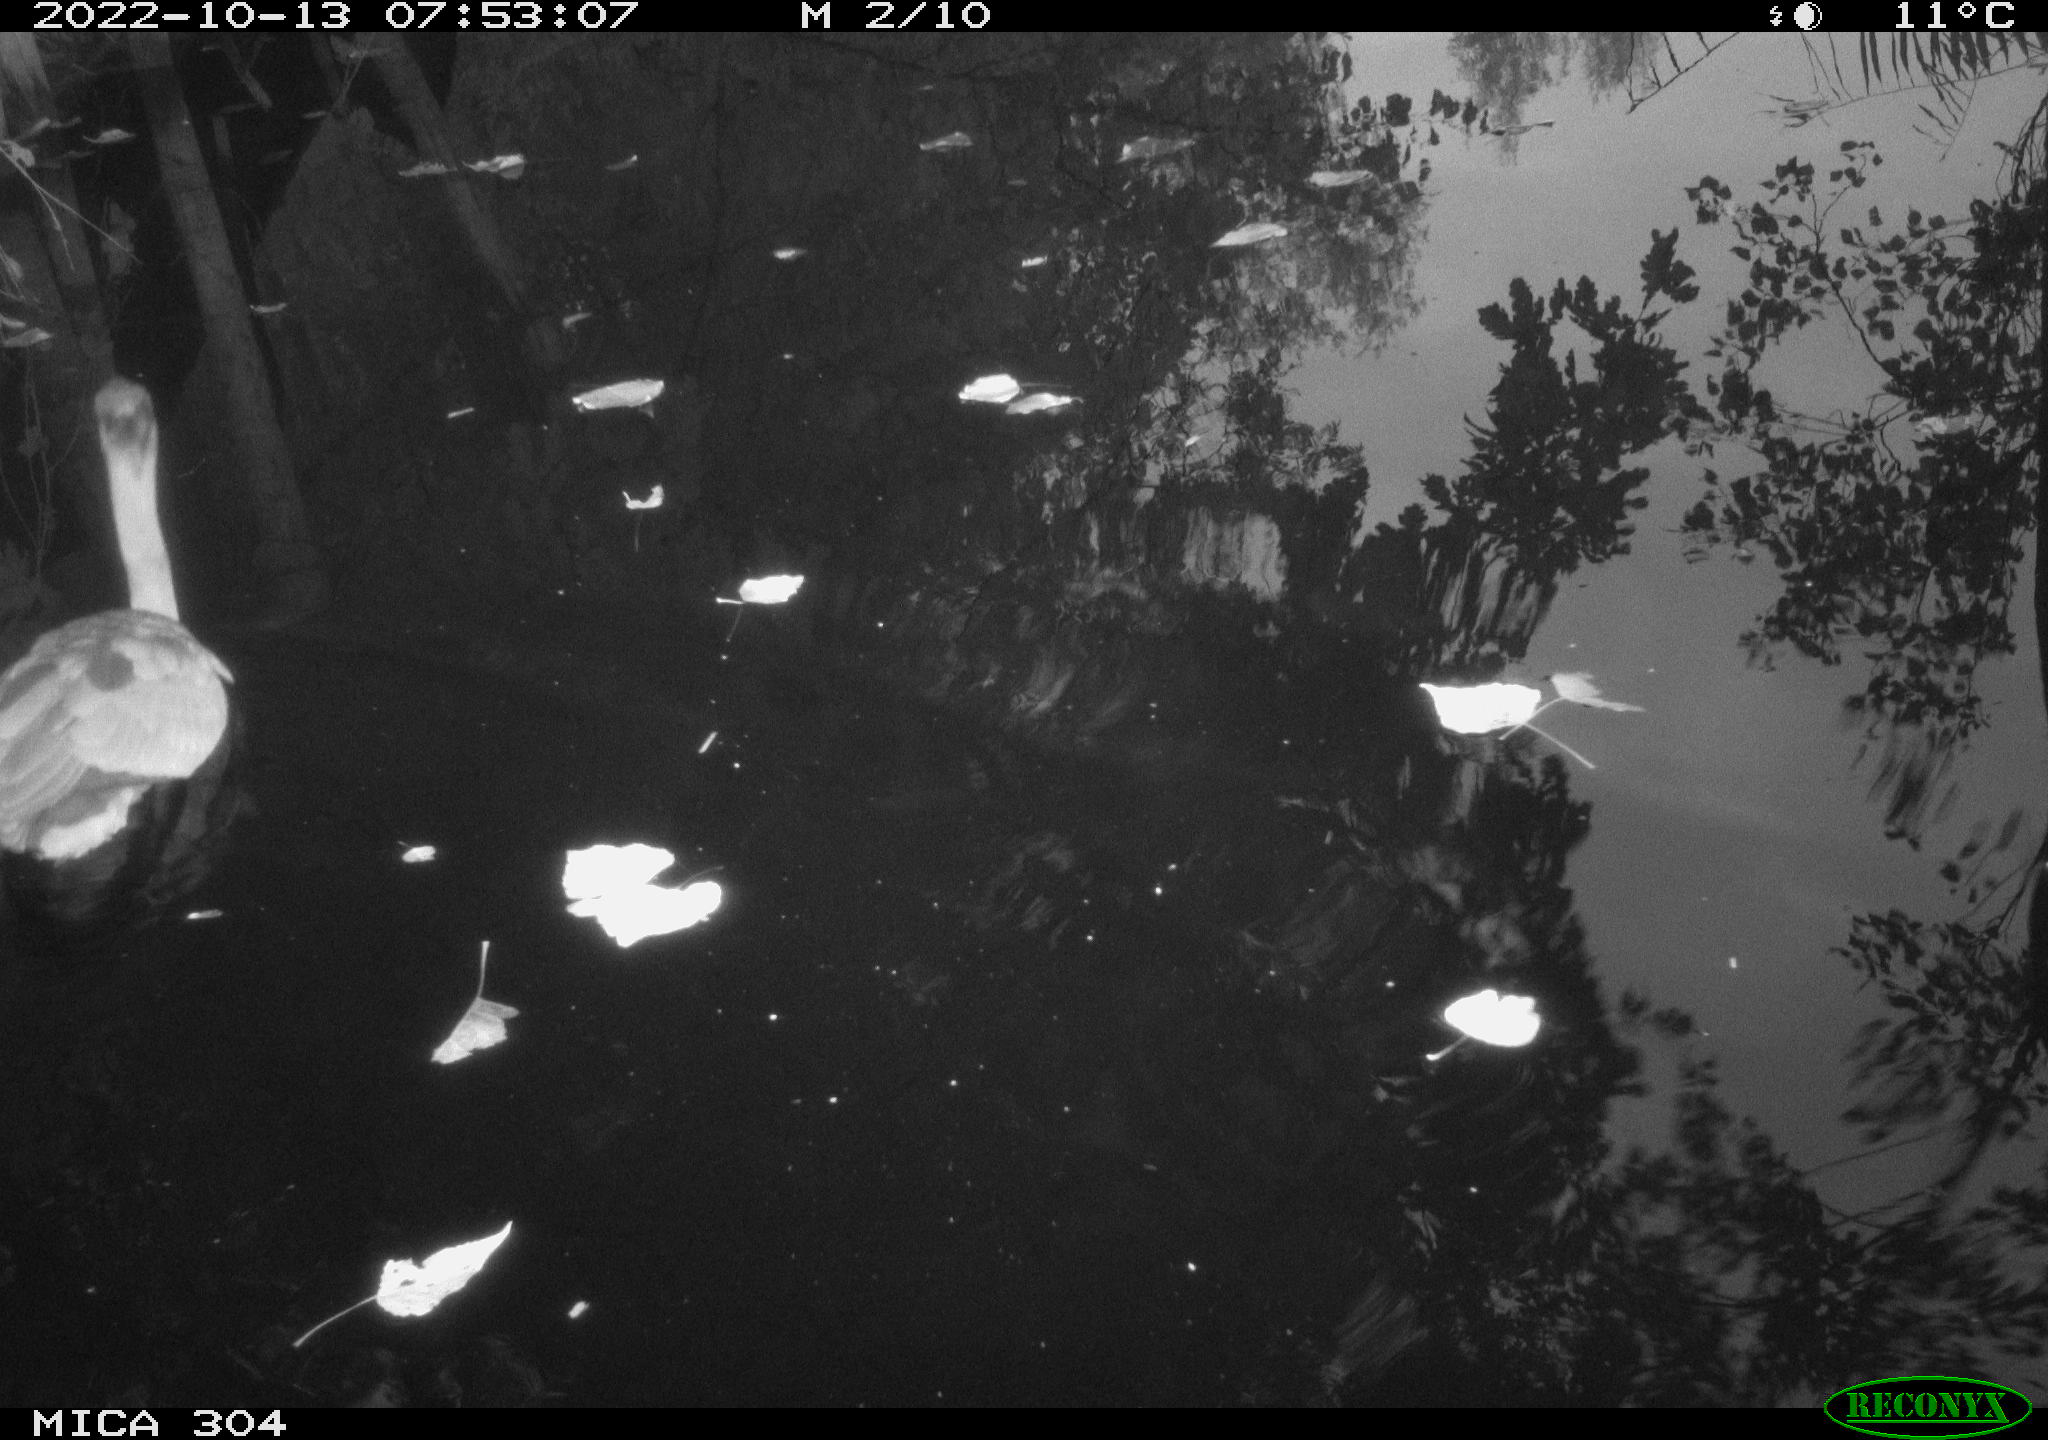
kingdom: Animalia
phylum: Chordata
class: Aves
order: Pelecaniformes
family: Ardeidae
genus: Ardea
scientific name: Ardea cinerea
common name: Grey heron
